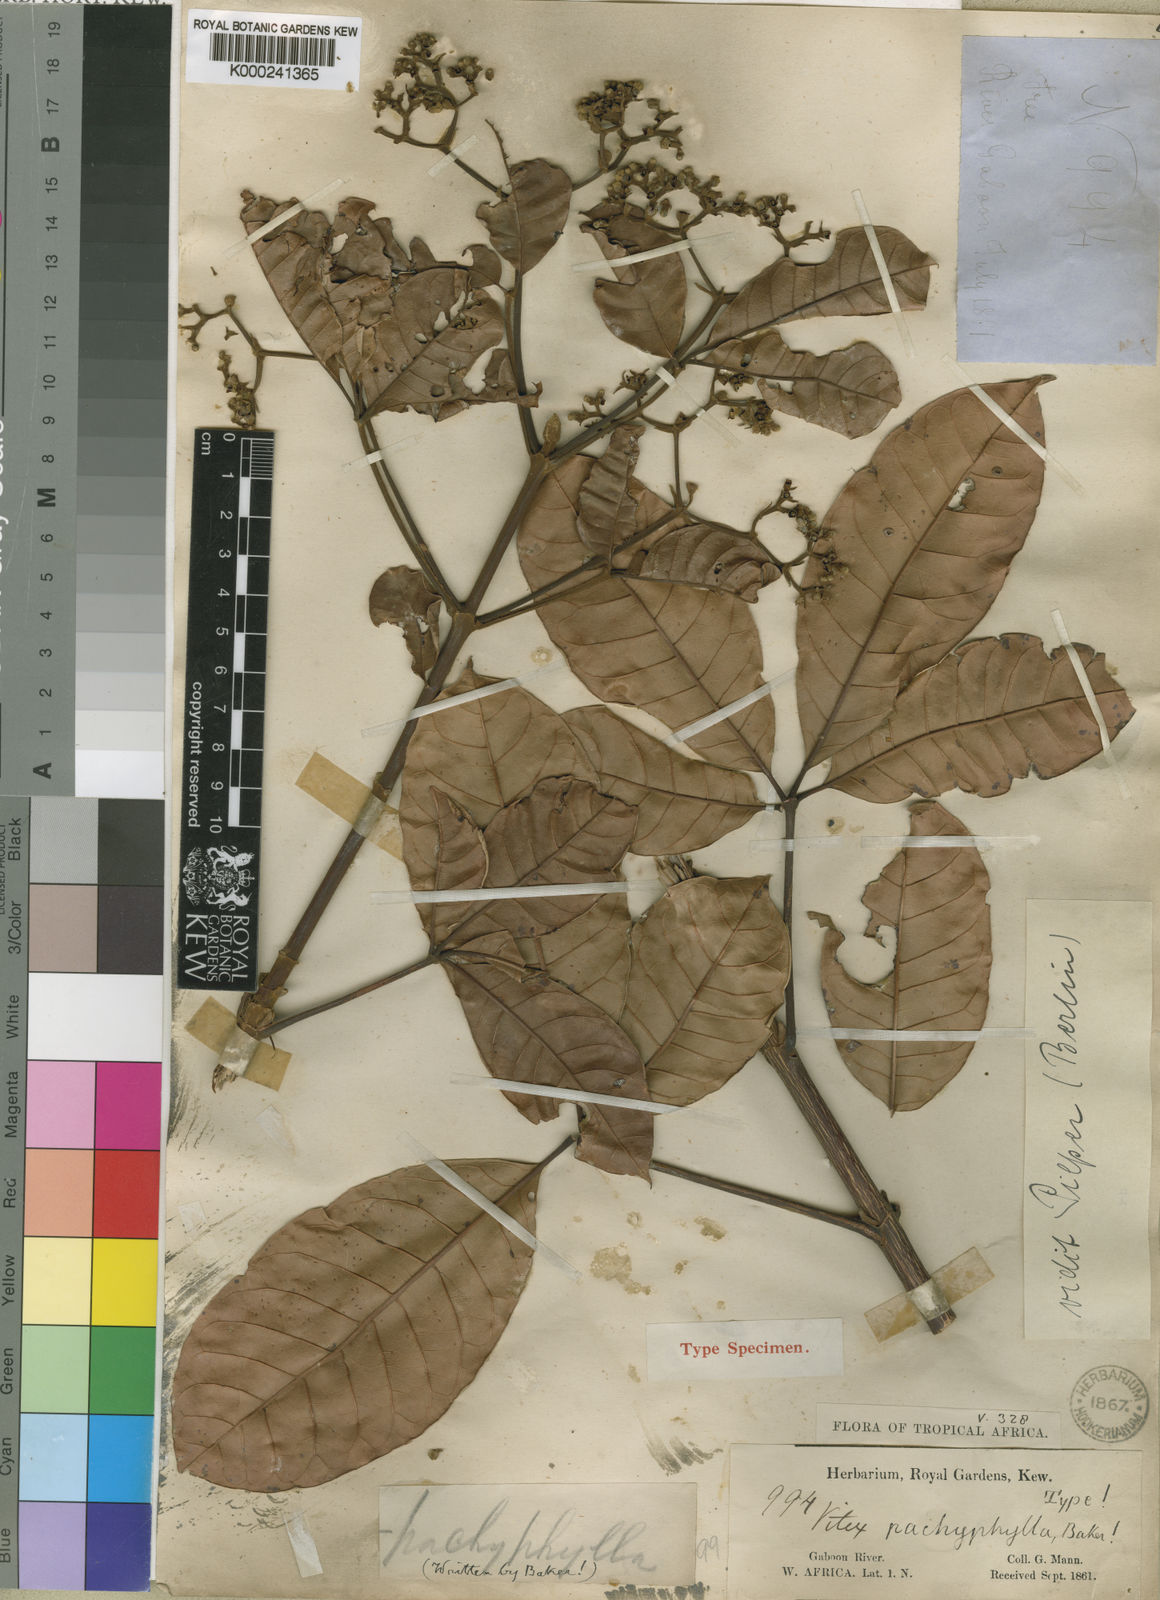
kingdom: Plantae
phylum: Tracheophyta
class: Magnoliopsida
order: Lamiales
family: Lamiaceae
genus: Vitex
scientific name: Vitex doniana
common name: Black plum
